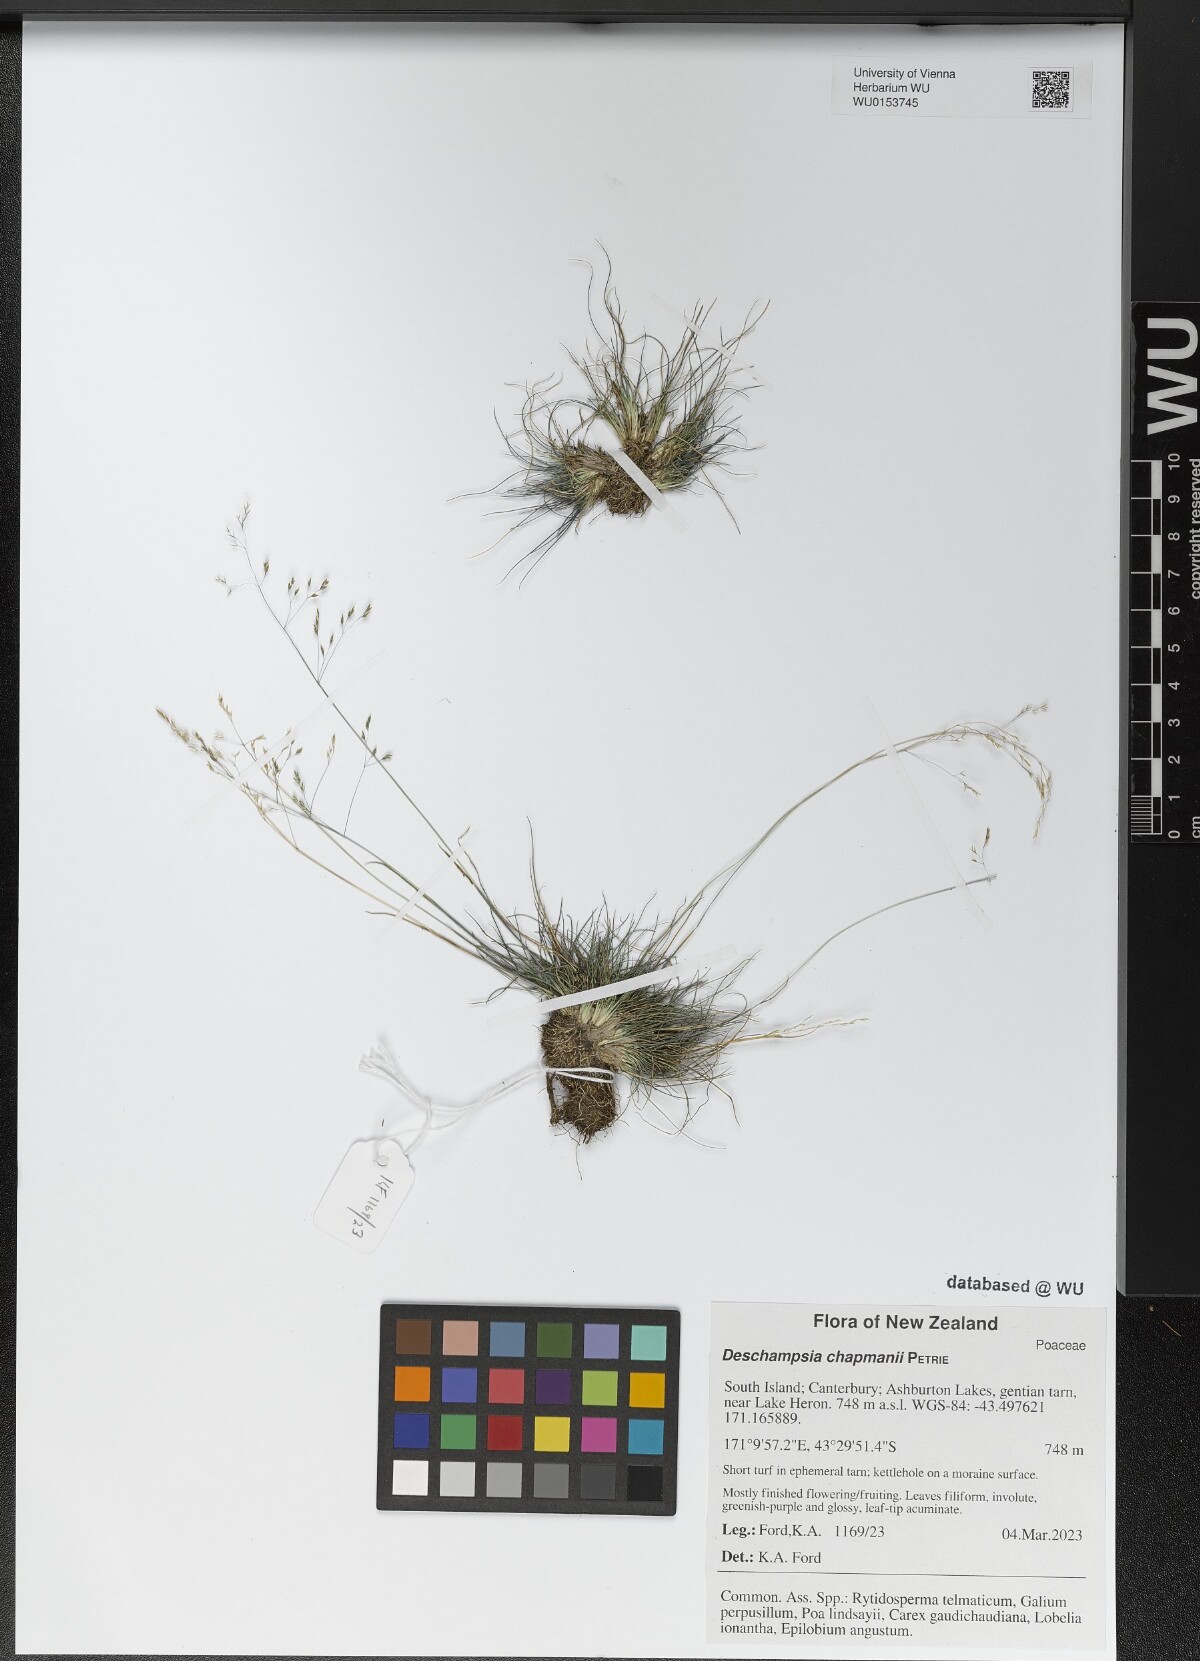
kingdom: Plantae
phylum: Tracheophyta
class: Liliopsida
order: Poales
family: Poaceae
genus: Deschampsia
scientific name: Deschampsia chapmanii
